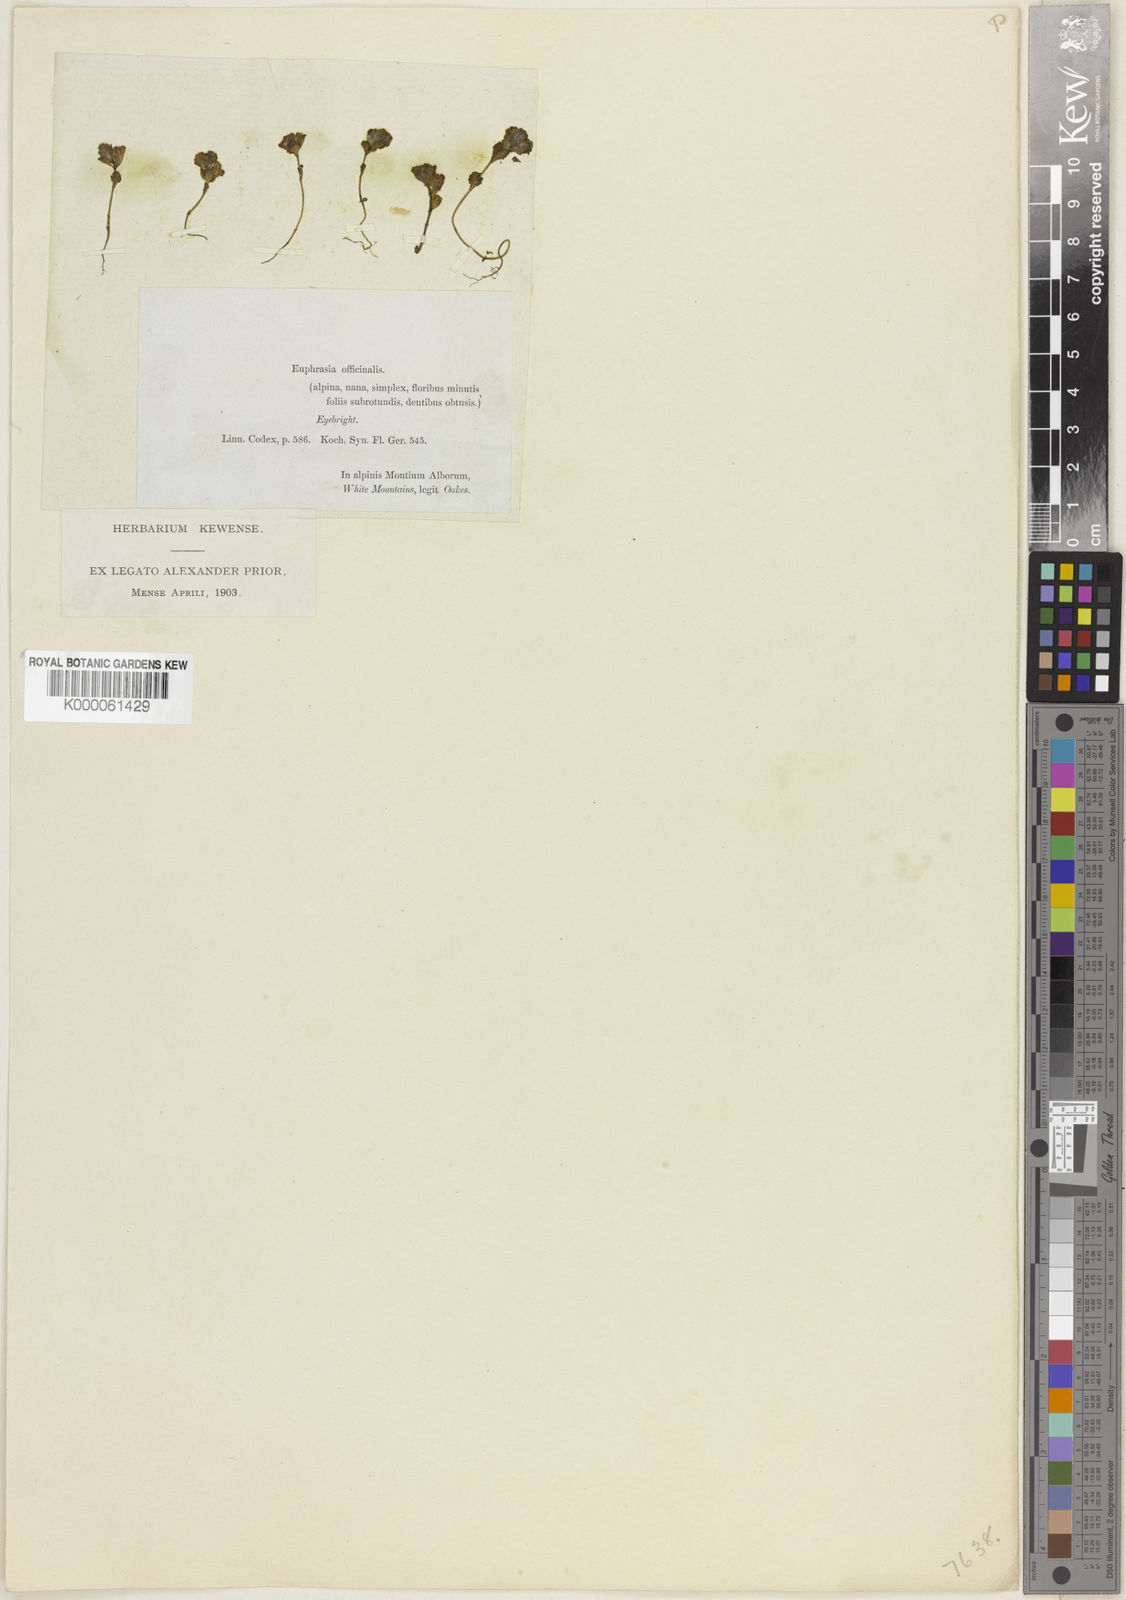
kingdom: Plantae
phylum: Tracheophyta
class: Magnoliopsida
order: Lamiales
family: Orobanchaceae
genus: Euphrasia
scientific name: Euphrasia oakesii
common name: Oakes' eyebright
